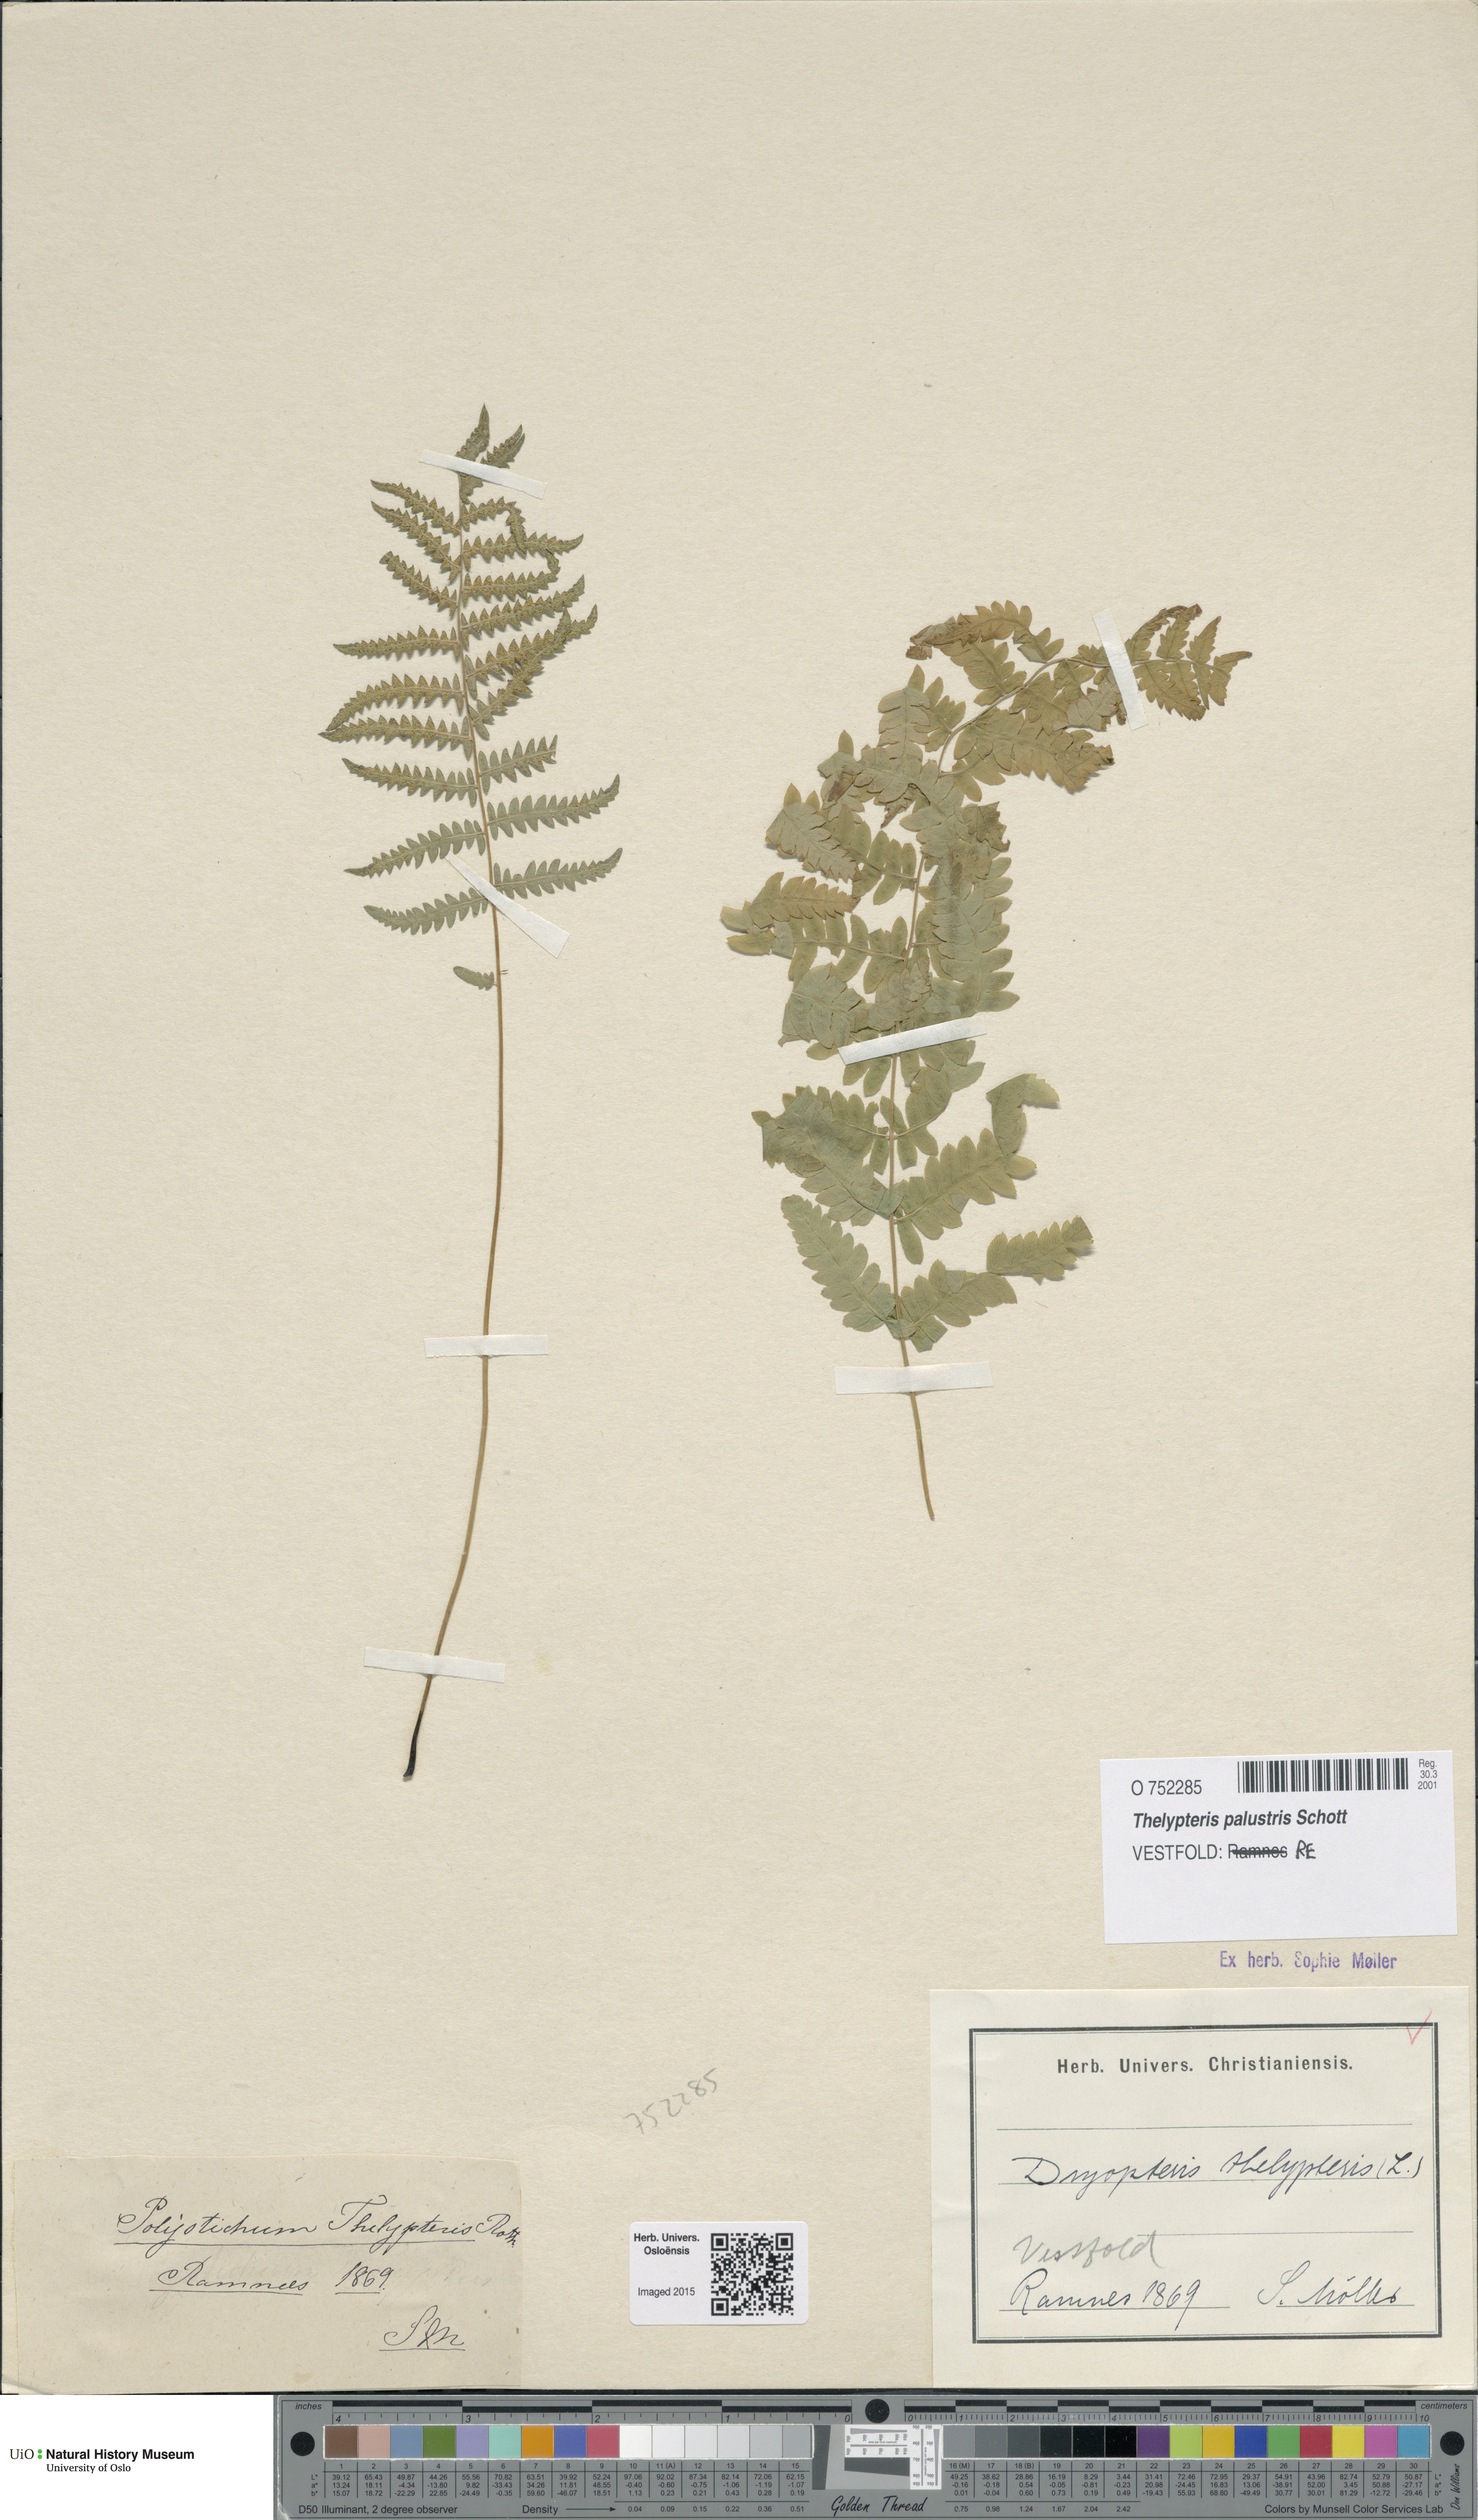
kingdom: Plantae
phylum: Tracheophyta
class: Polypodiopsida
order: Polypodiales
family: Thelypteridaceae
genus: Thelypteris
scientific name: Thelypteris palustris
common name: Marsh fern
